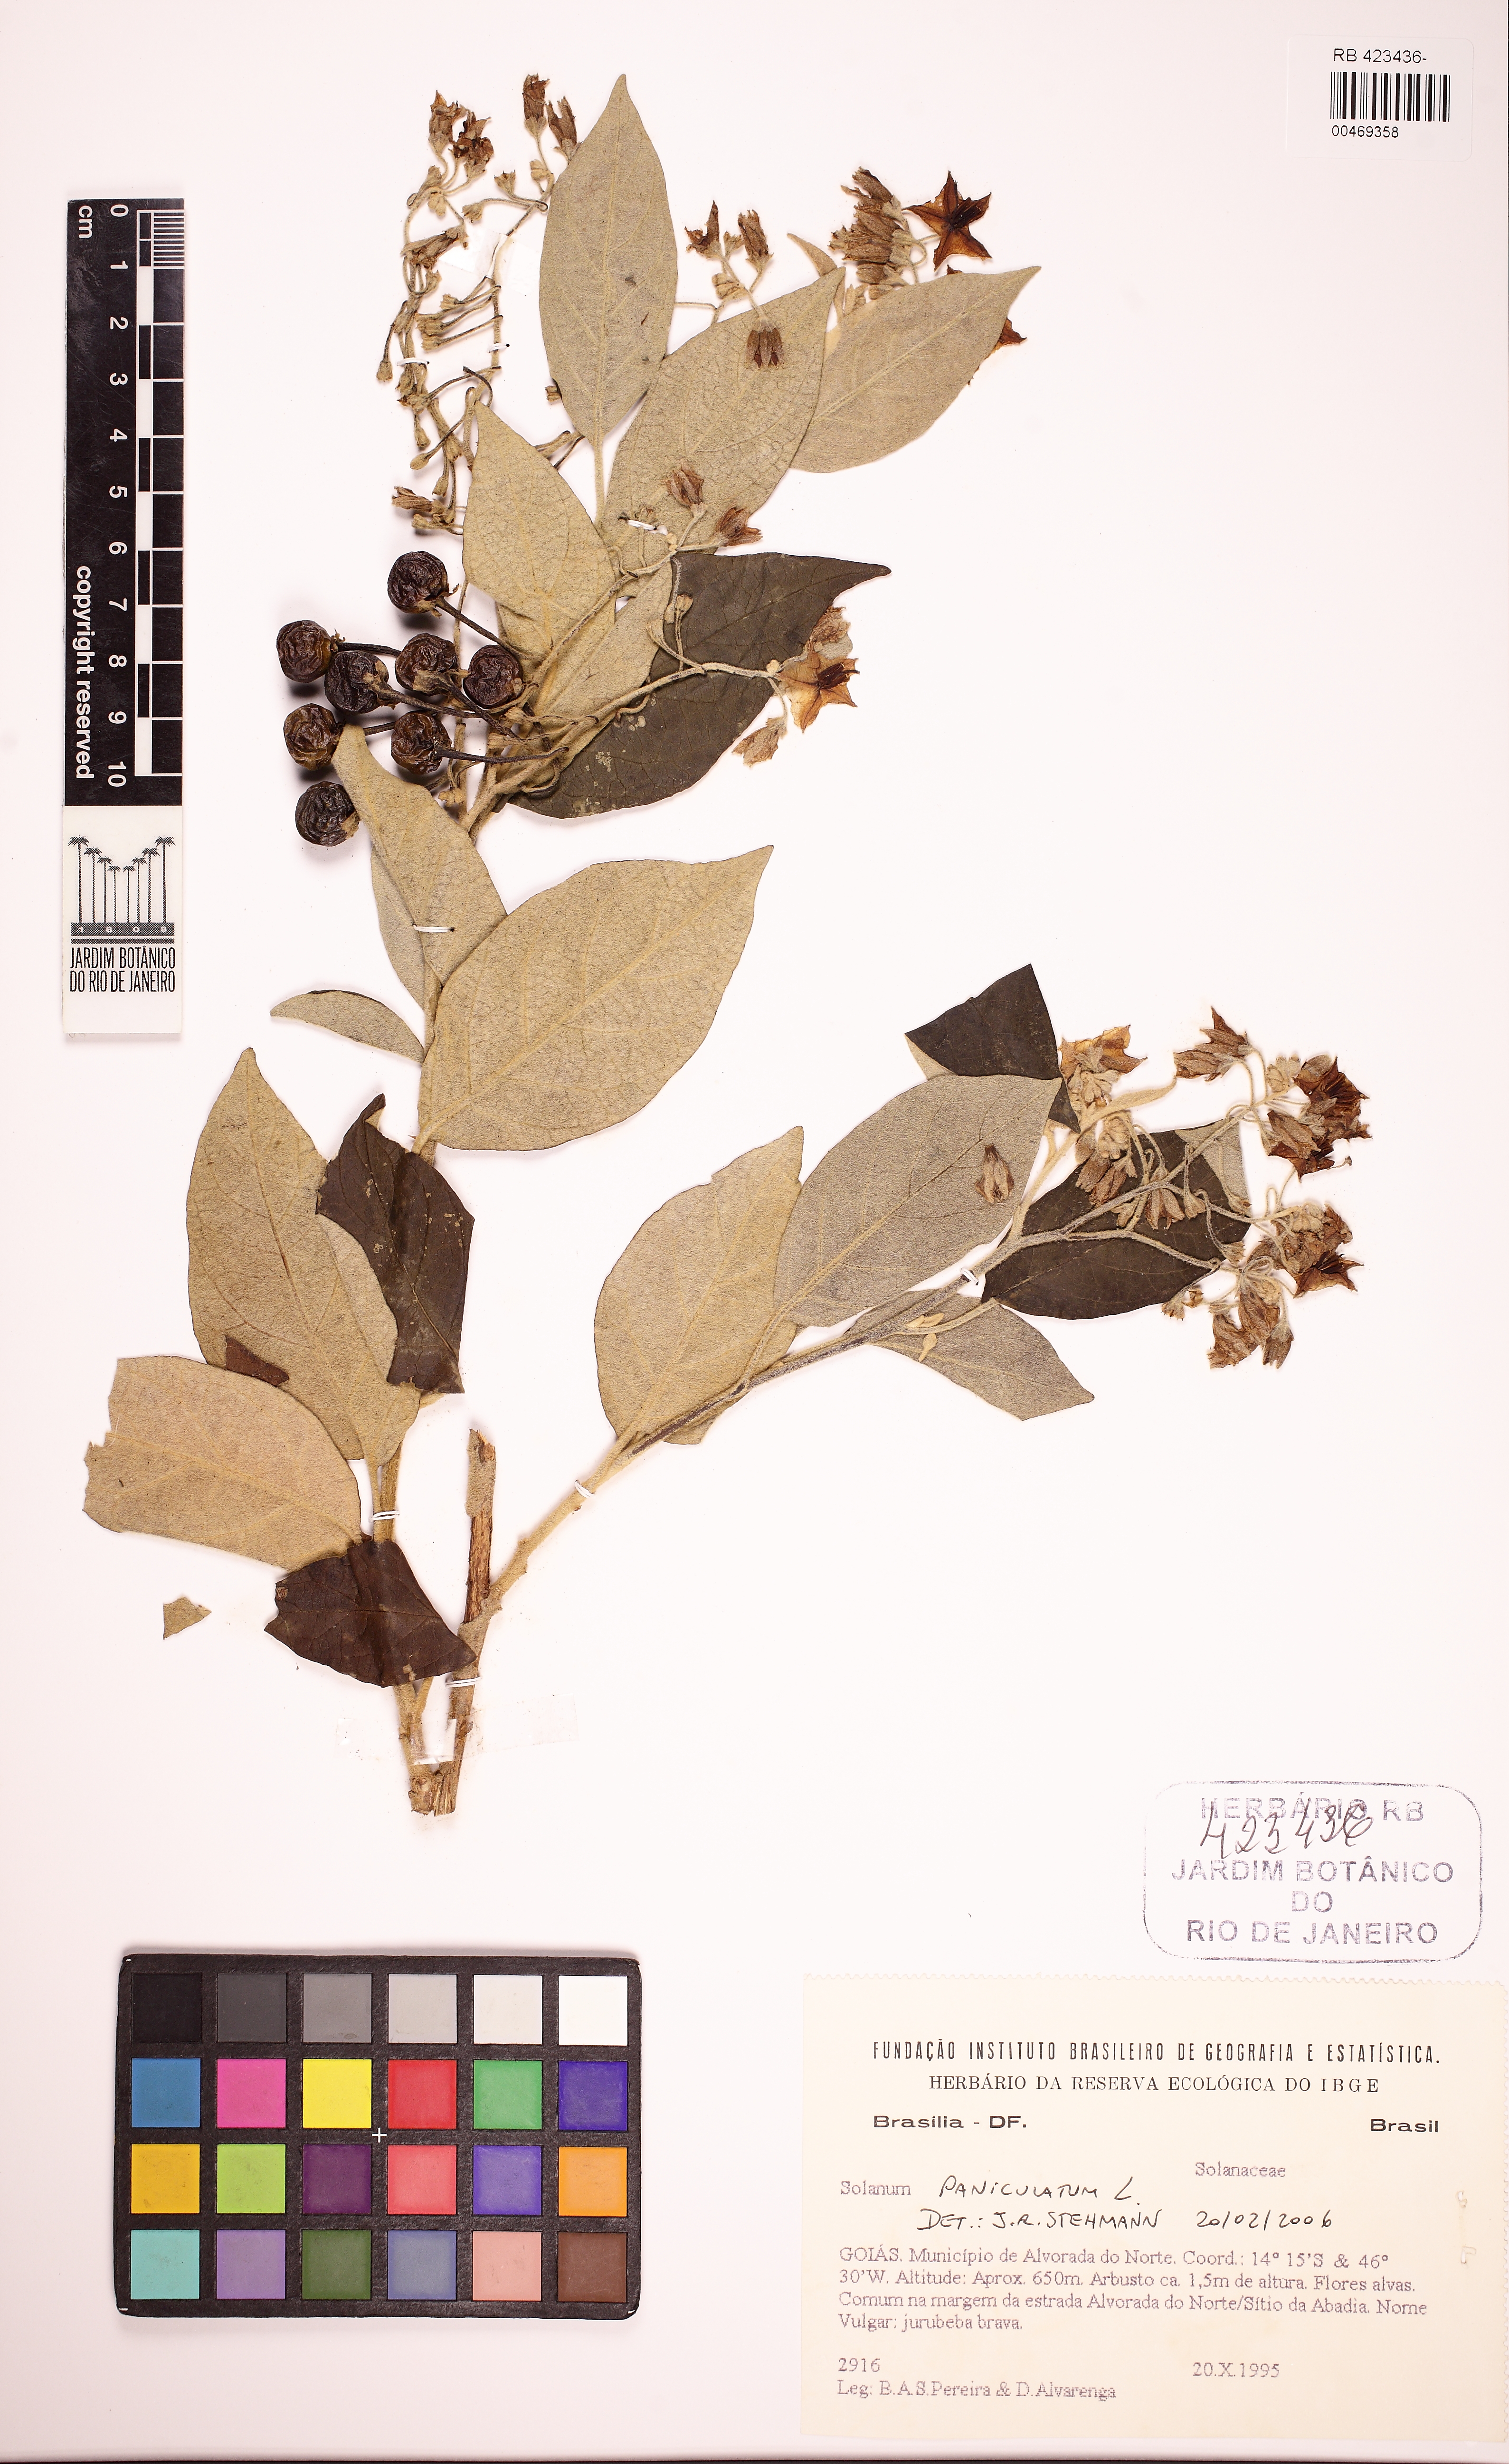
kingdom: Plantae
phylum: Tracheophyta
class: Magnoliopsida
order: Solanales
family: Solanaceae
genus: Solanum
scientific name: Solanum paniculatum
